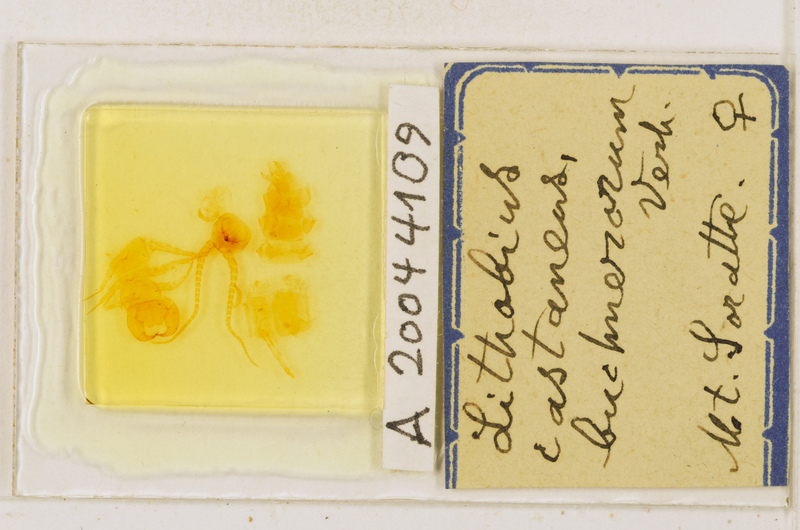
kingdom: Animalia
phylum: Arthropoda
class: Chilopoda
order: Lithobiomorpha
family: Lithobiidae
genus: Lithobius
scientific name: Lithobius castaneus
